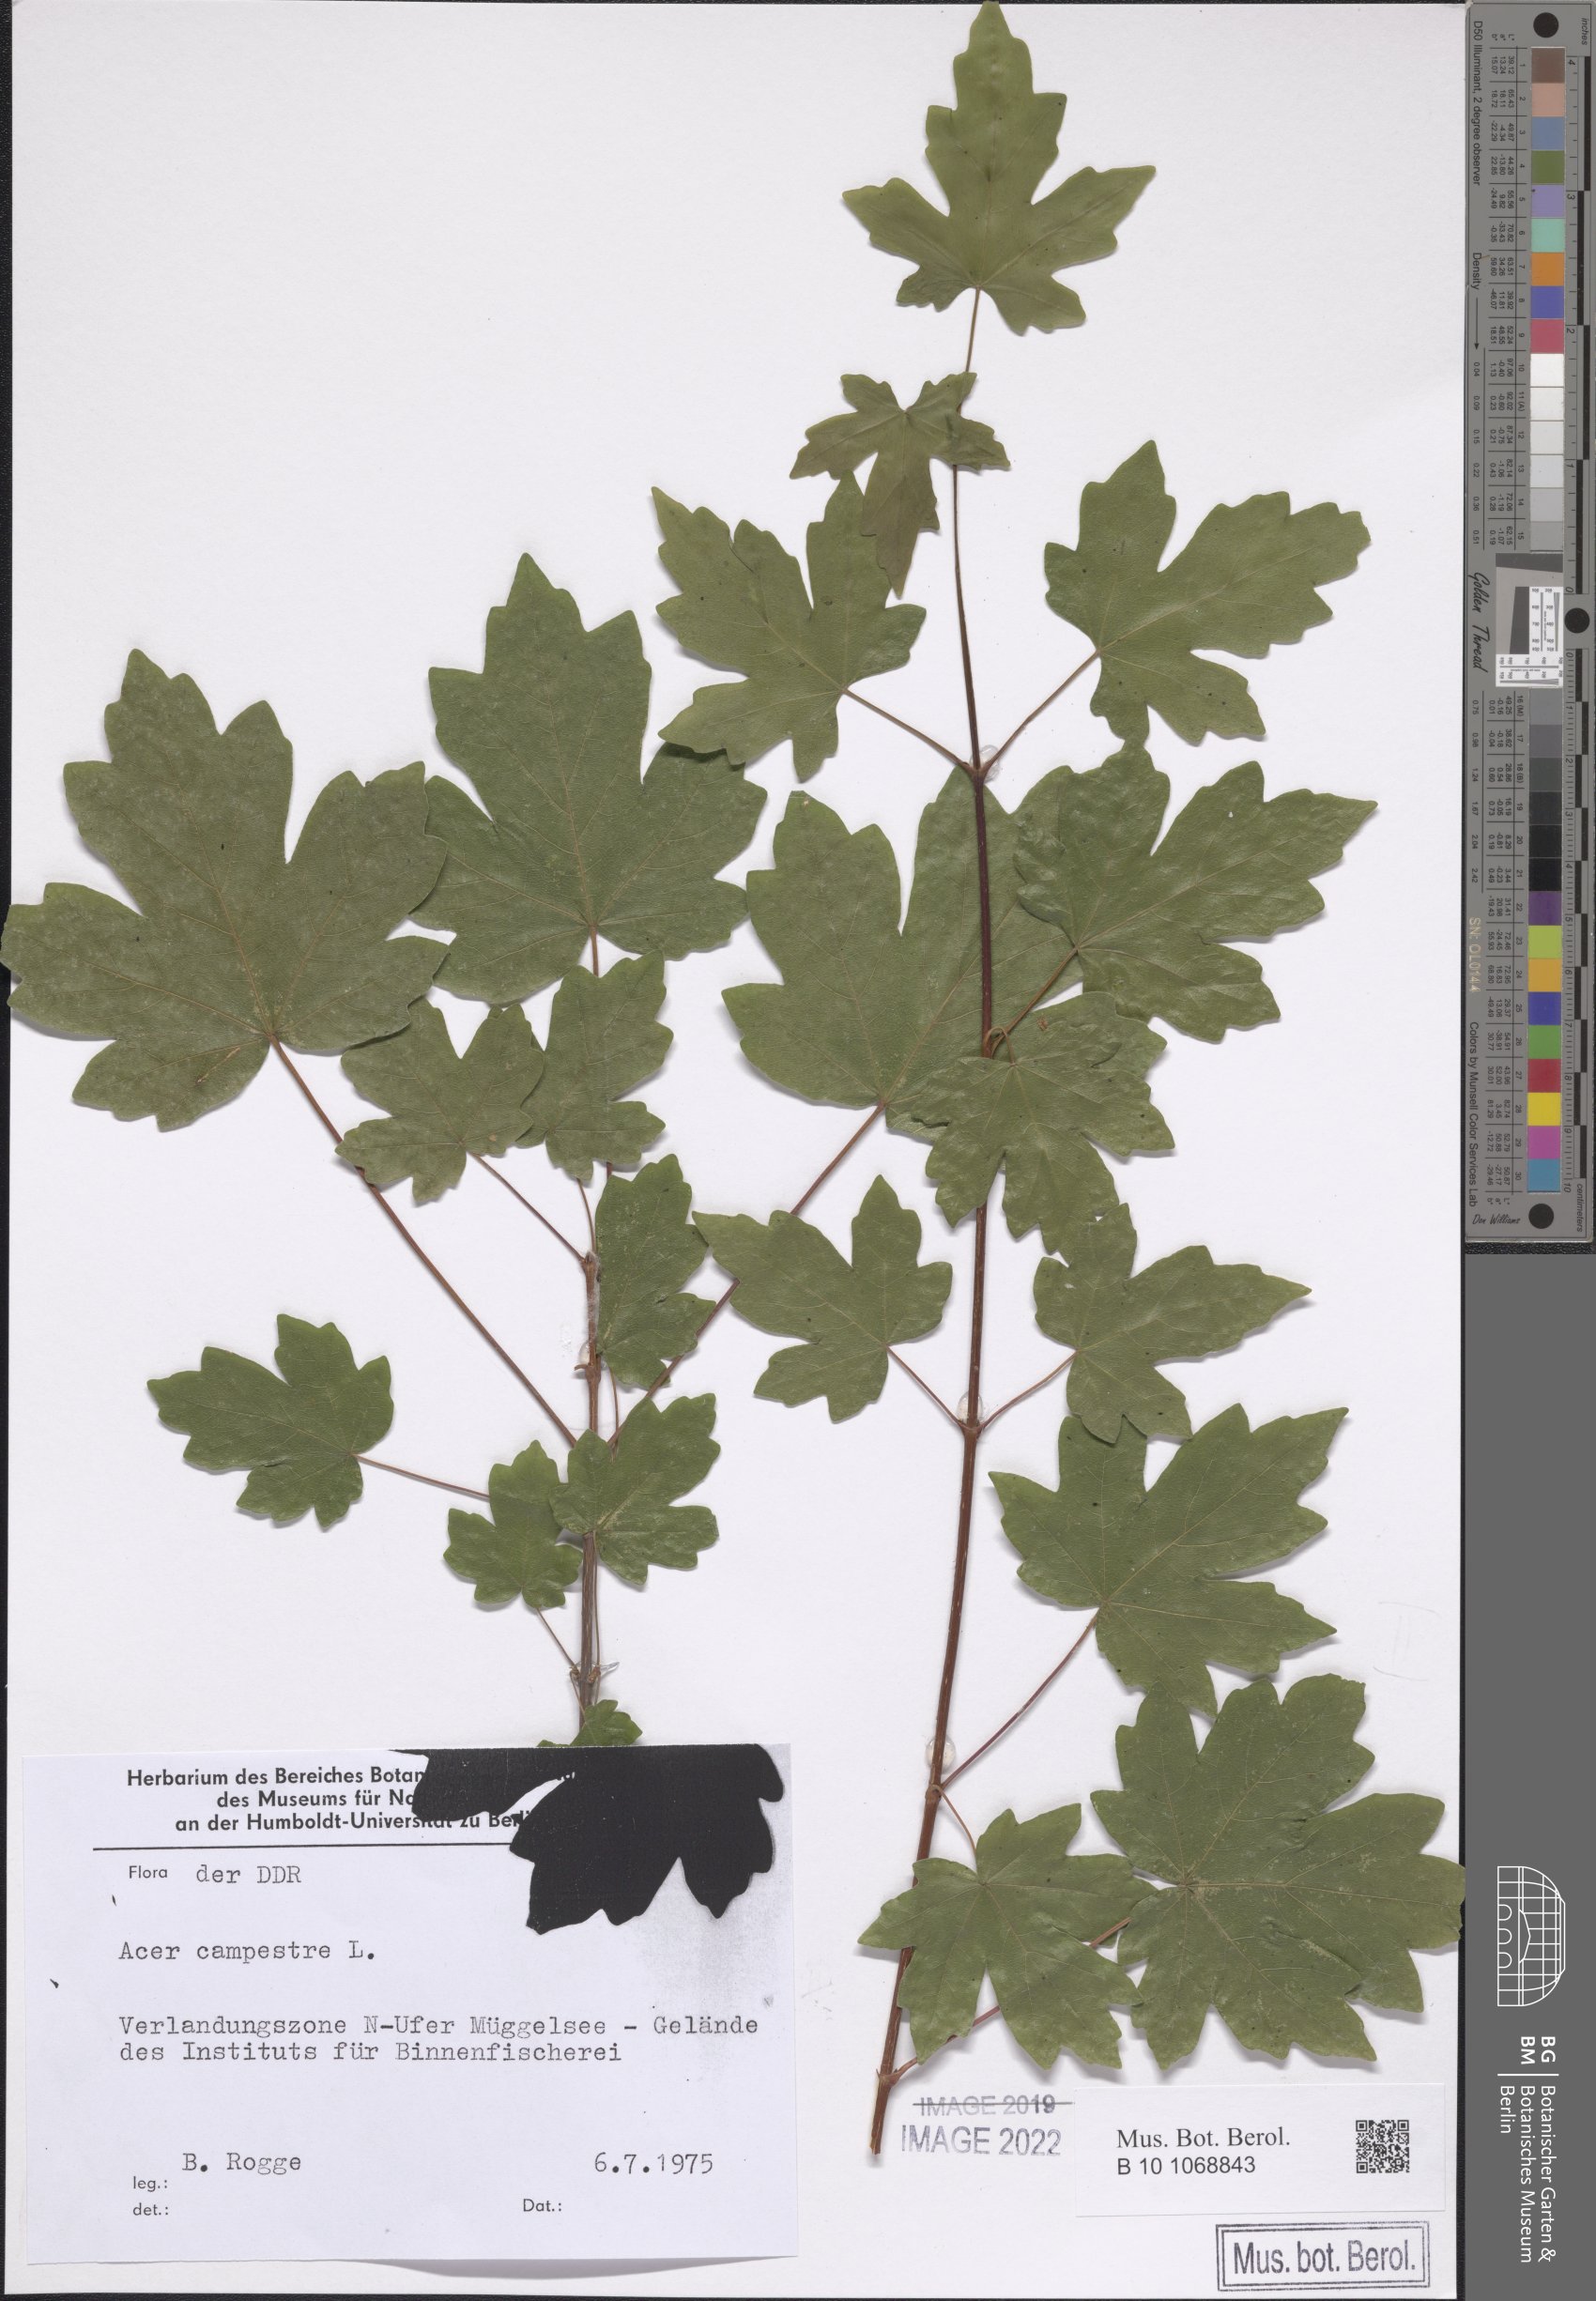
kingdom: Plantae
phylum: Tracheophyta
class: Magnoliopsida
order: Sapindales
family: Sapindaceae
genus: Acer
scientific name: Acer campestre
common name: Field maple
